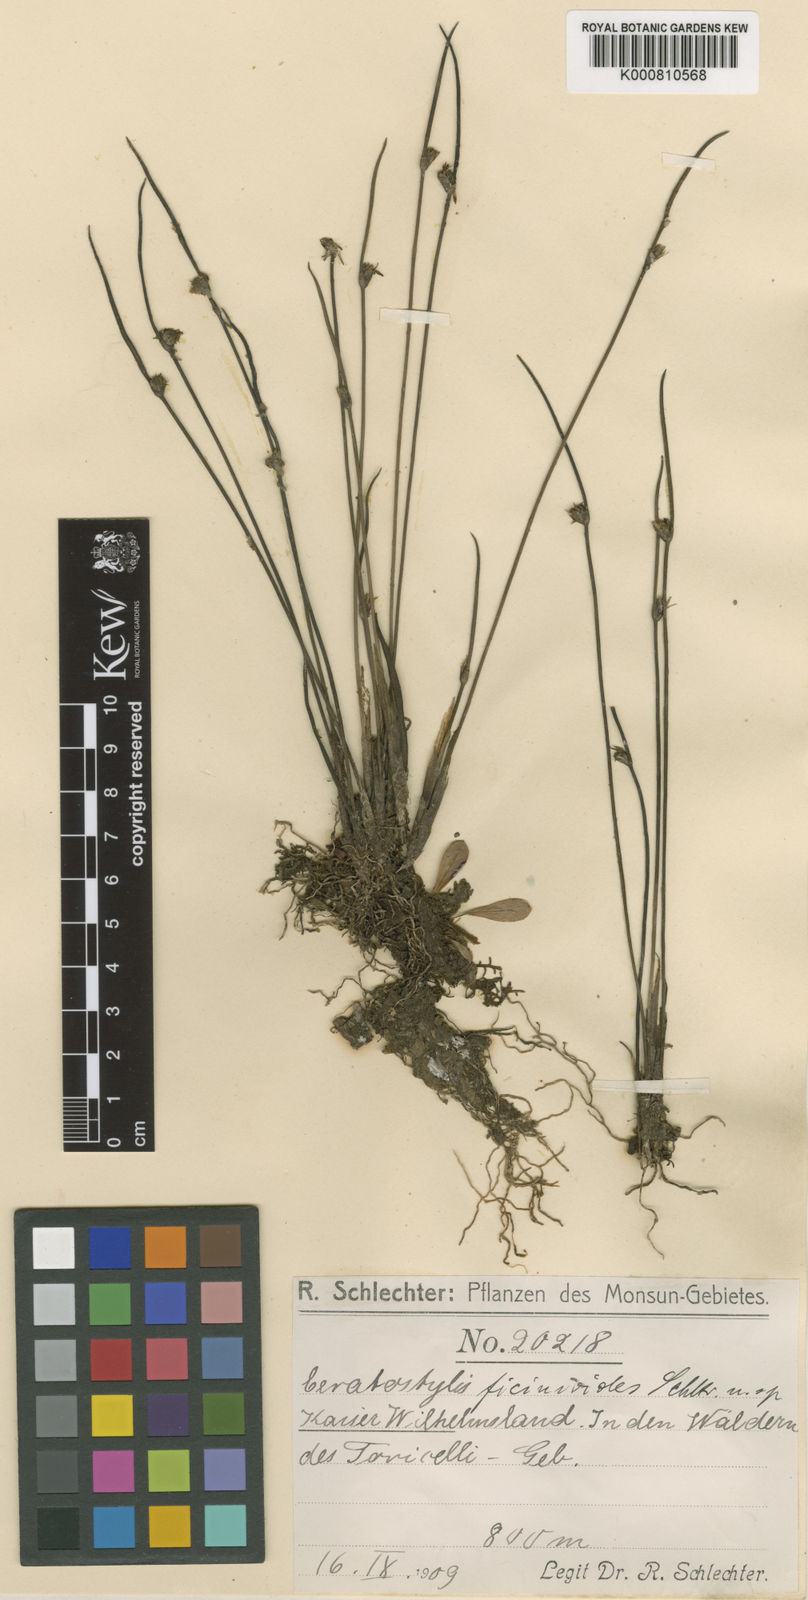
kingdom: Plantae
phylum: Tracheophyta
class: Liliopsida
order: Asparagales
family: Orchidaceae
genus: Ceratostylis
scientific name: Ceratostylis ficinioides
